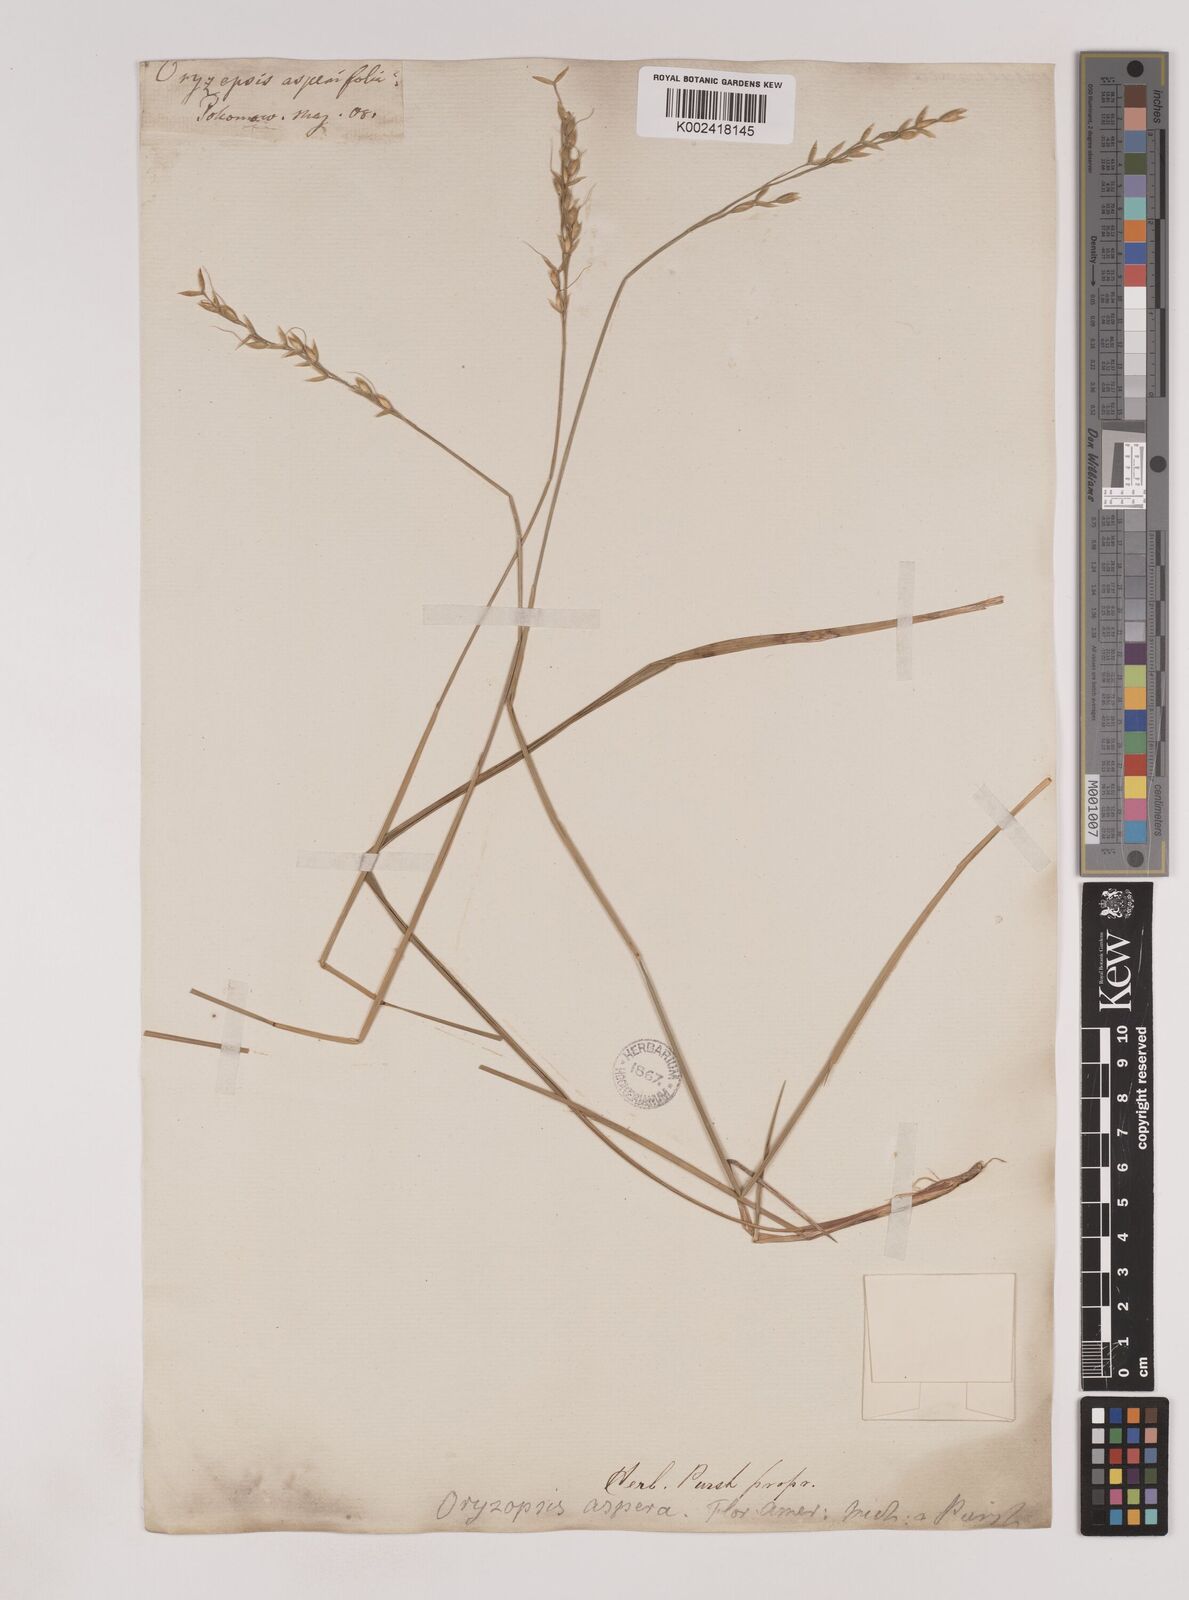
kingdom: Plantae
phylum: Tracheophyta
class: Liliopsida
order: Poales
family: Poaceae
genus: Oryzopsis
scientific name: Oryzopsis asperifolia
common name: Rough-leaved mountain rice
